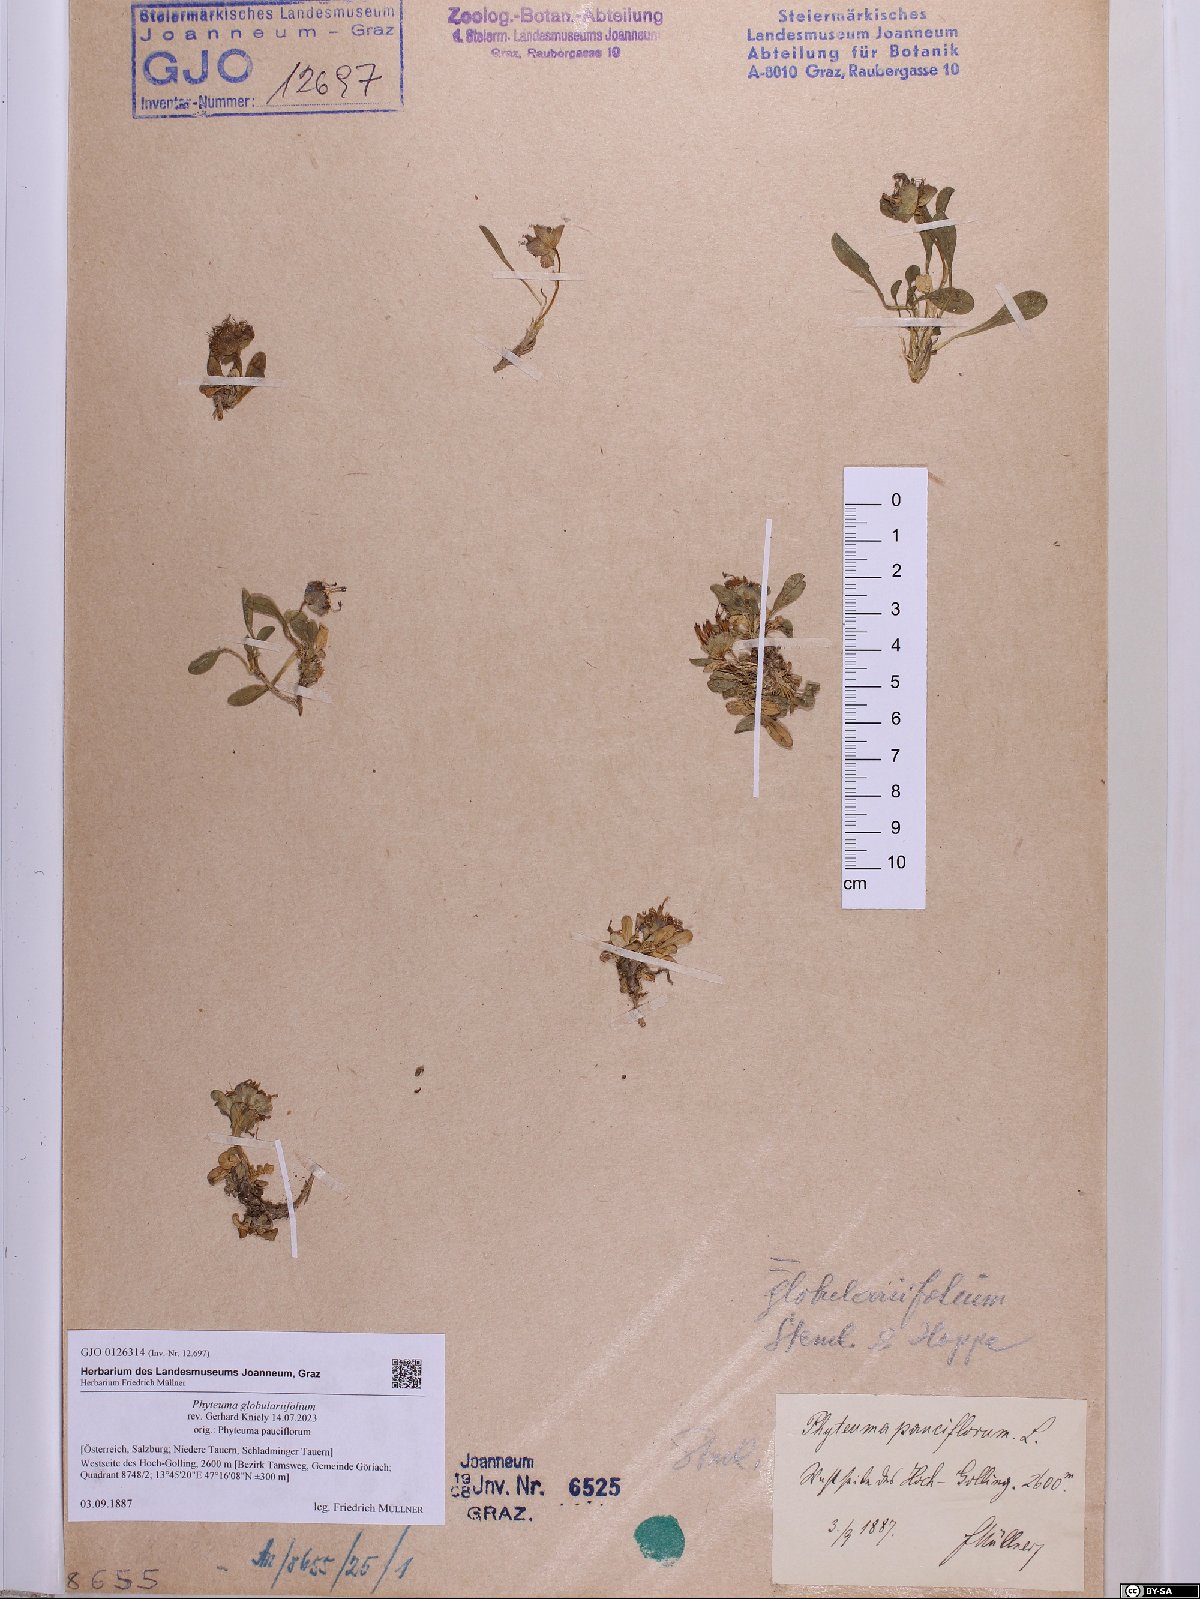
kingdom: Plantae
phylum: Tracheophyta
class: Magnoliopsida
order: Asterales
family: Campanulaceae
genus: Phyteuma
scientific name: Phyteuma globulariifolium
